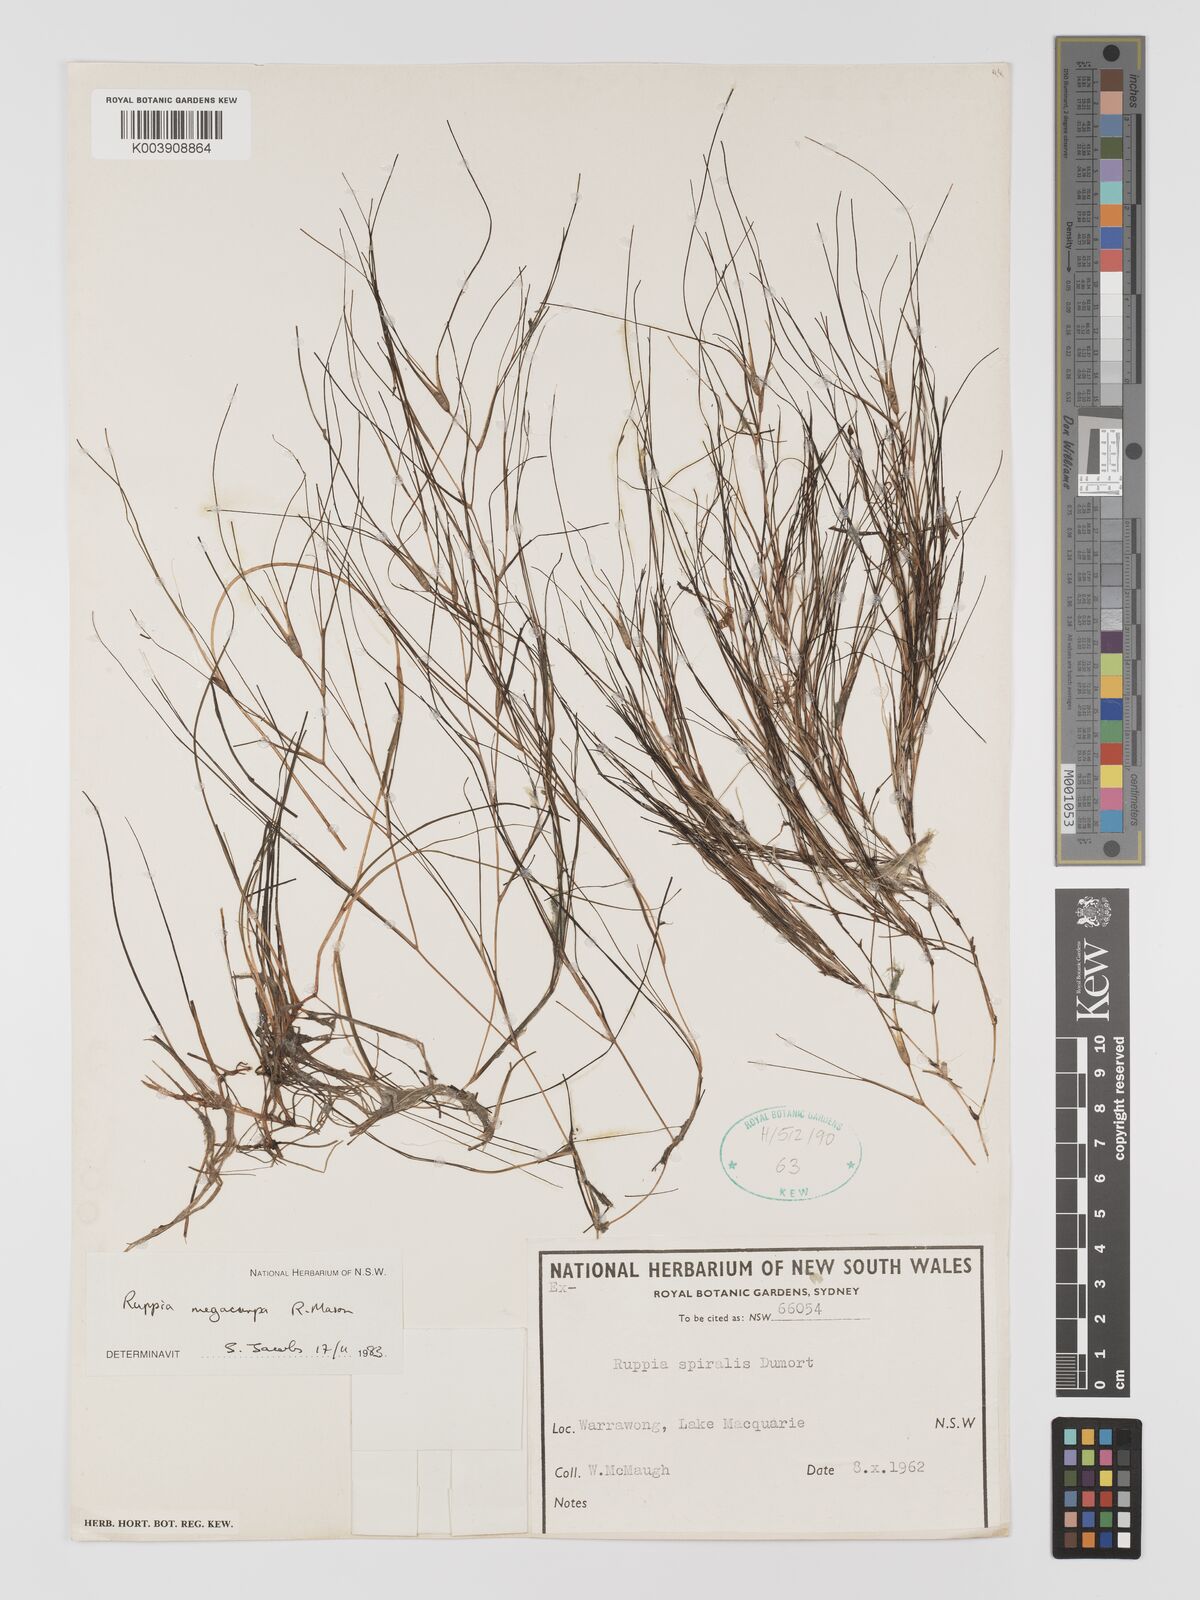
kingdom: Plantae
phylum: Tracheophyta
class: Liliopsida
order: Alismatales
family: Ruppiaceae
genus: Ruppia
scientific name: Ruppia megacarpa
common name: Large-fruit seatassel
